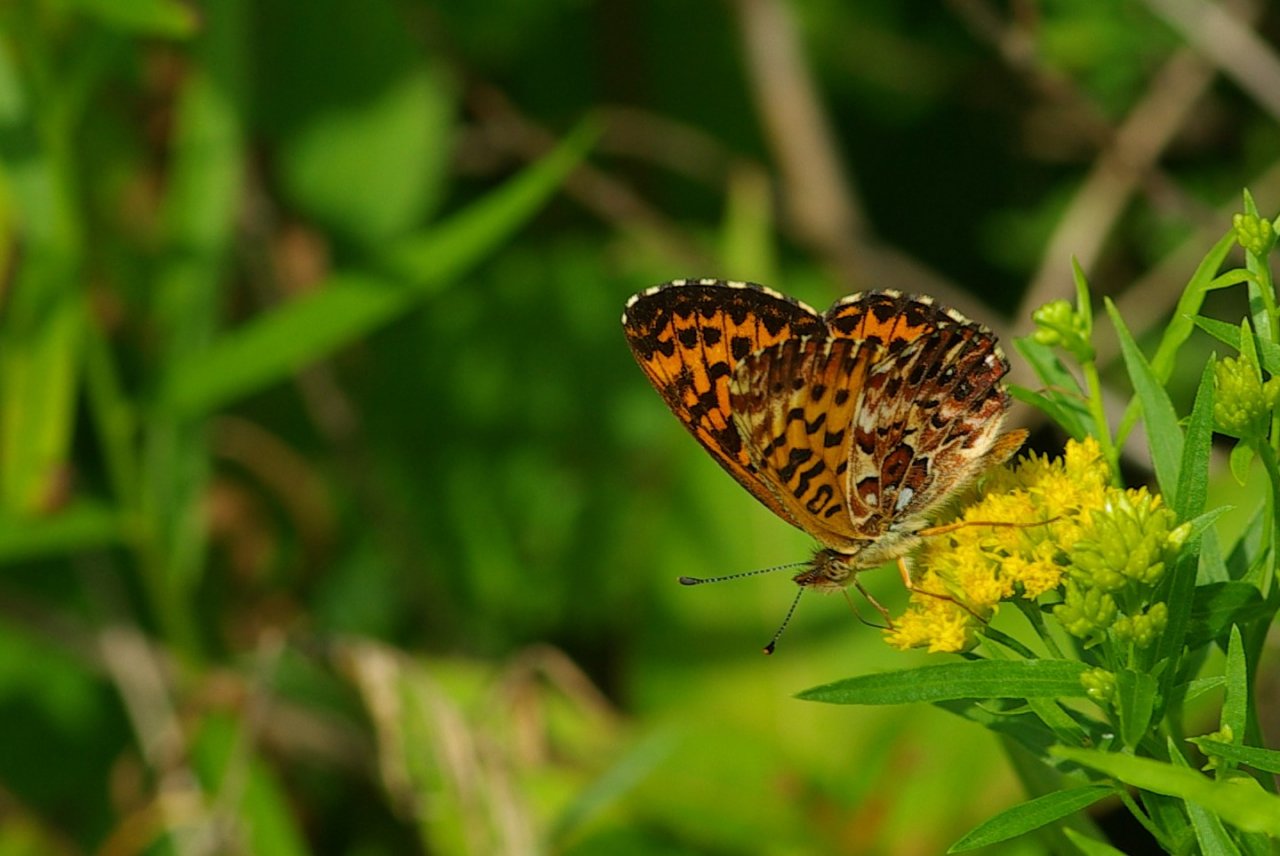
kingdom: Animalia
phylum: Arthropoda
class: Insecta
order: Lepidoptera
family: Nymphalidae
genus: Boloria
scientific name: Boloria chariclea
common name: Arctic Fritillary
